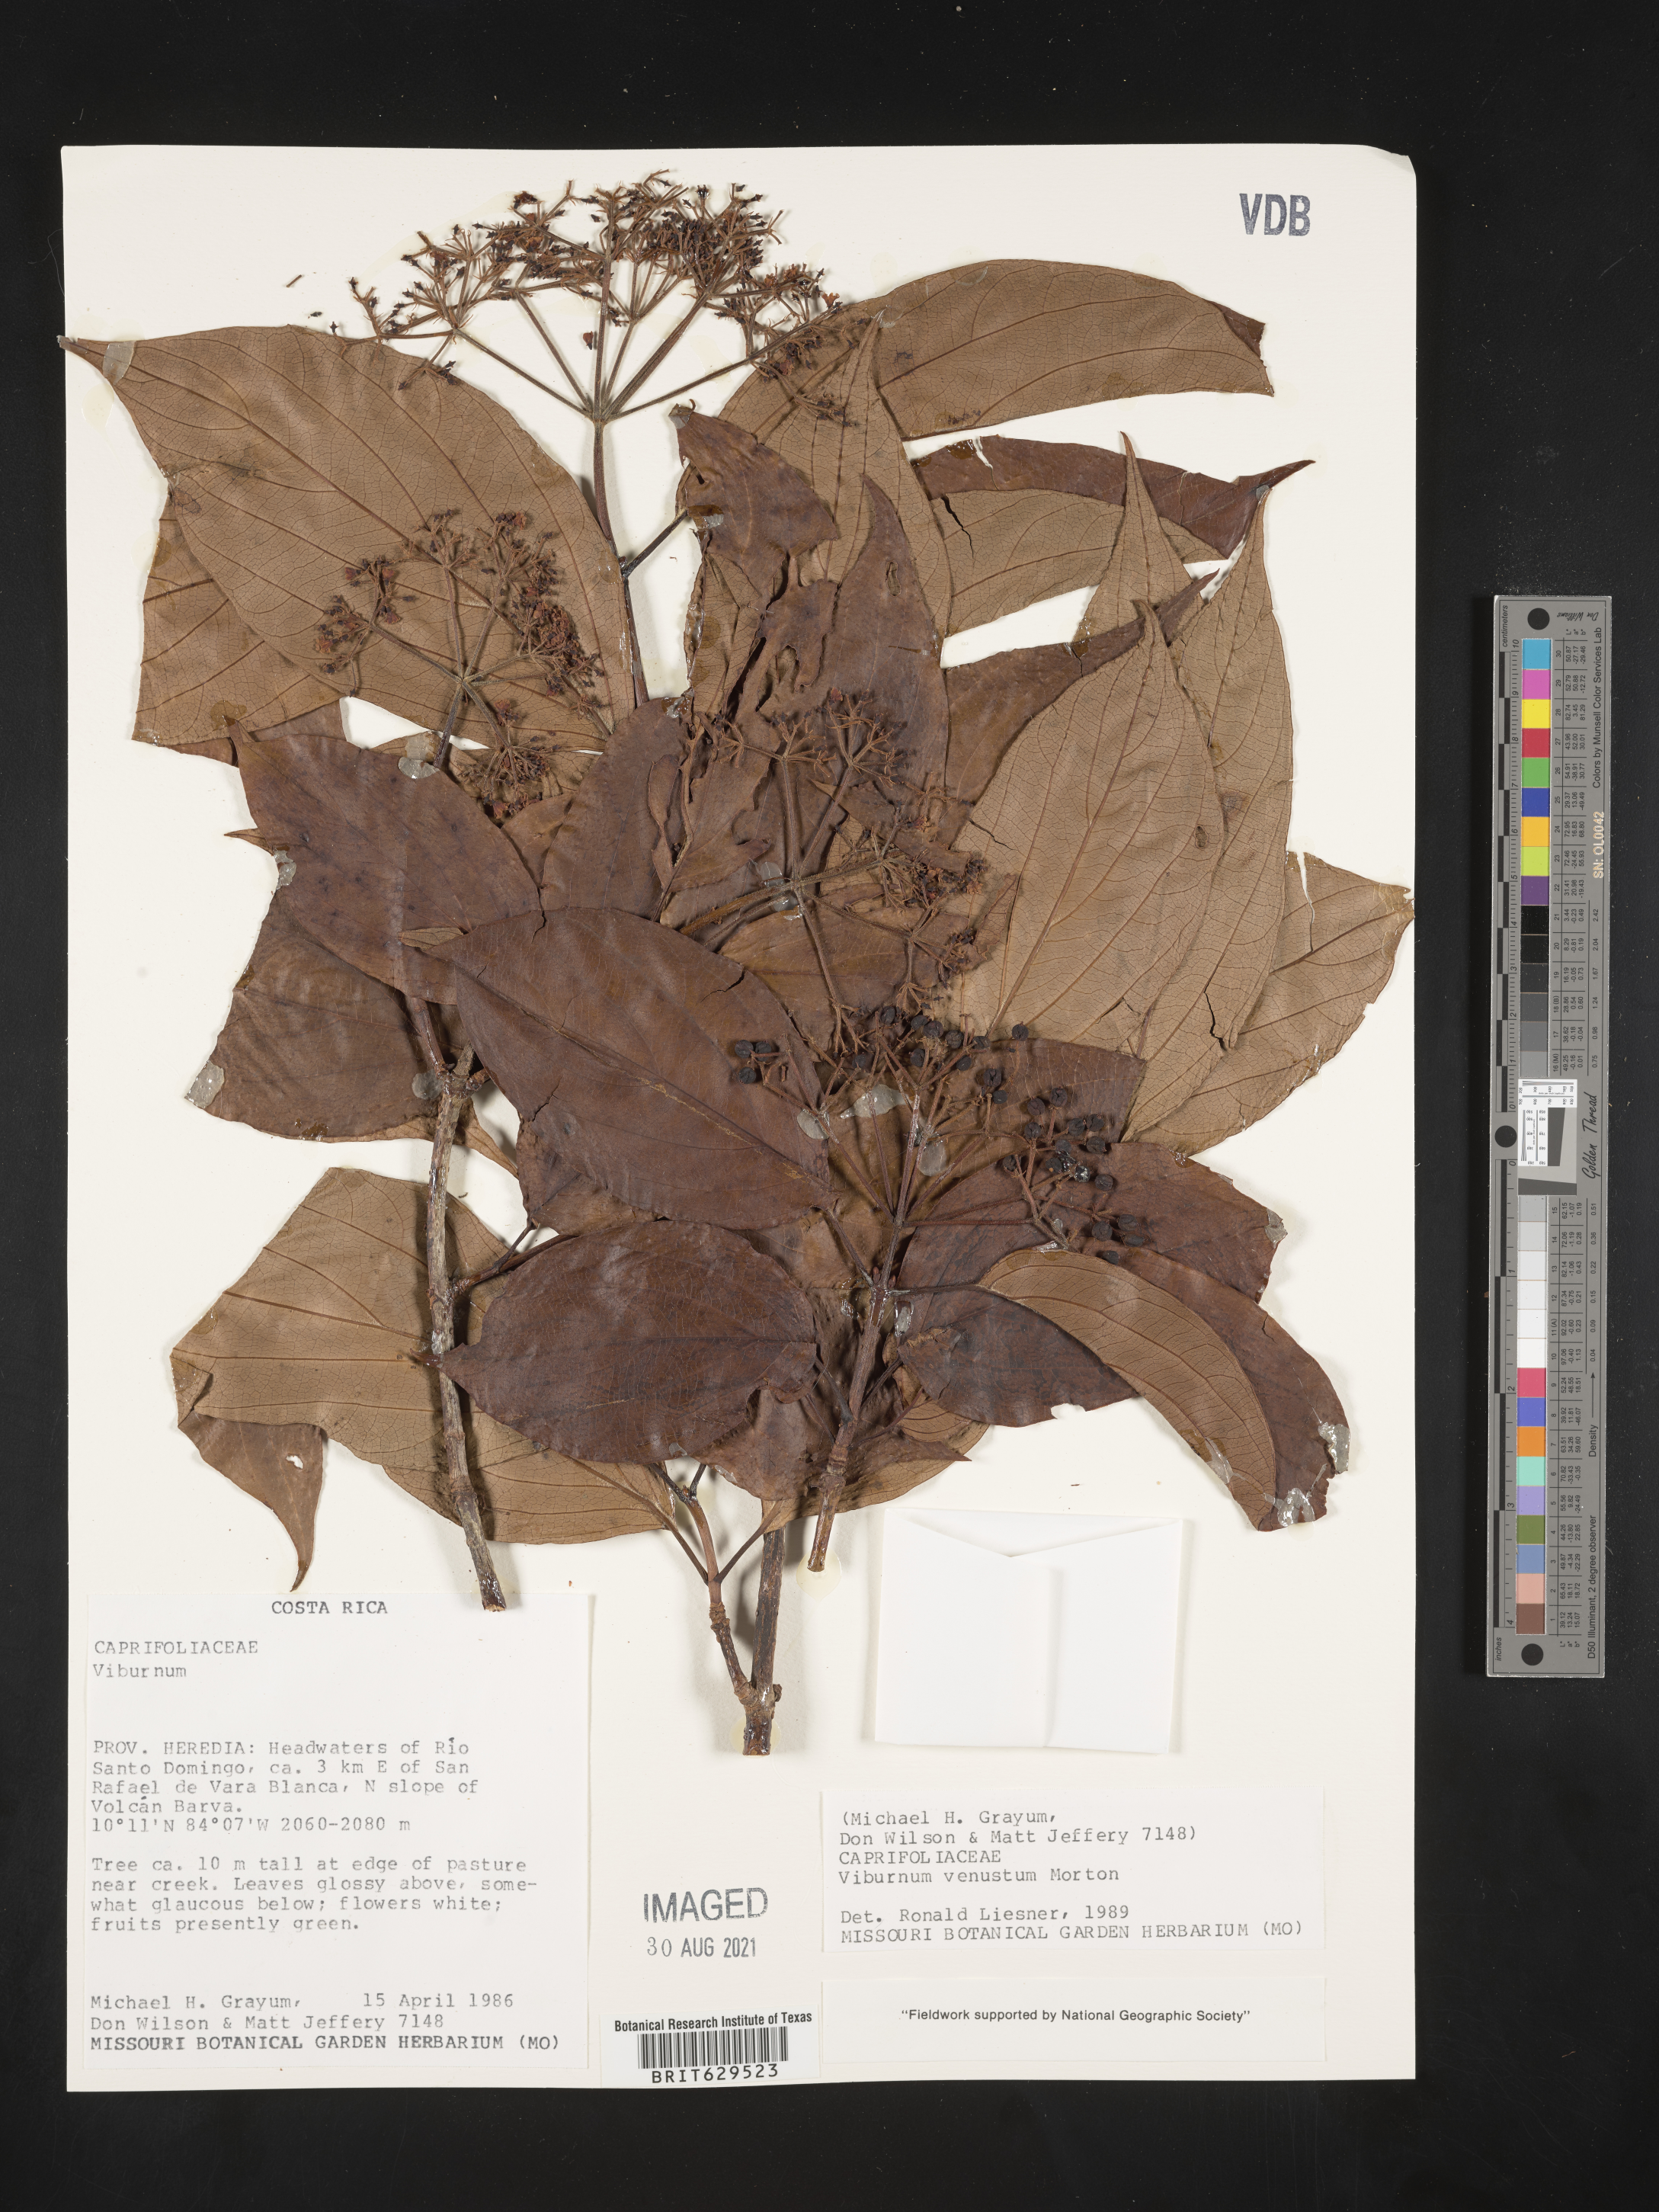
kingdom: Plantae
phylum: Tracheophyta
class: Magnoliopsida
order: Dipsacales
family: Viburnaceae
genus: Viburnum
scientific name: Viburnum venustum
